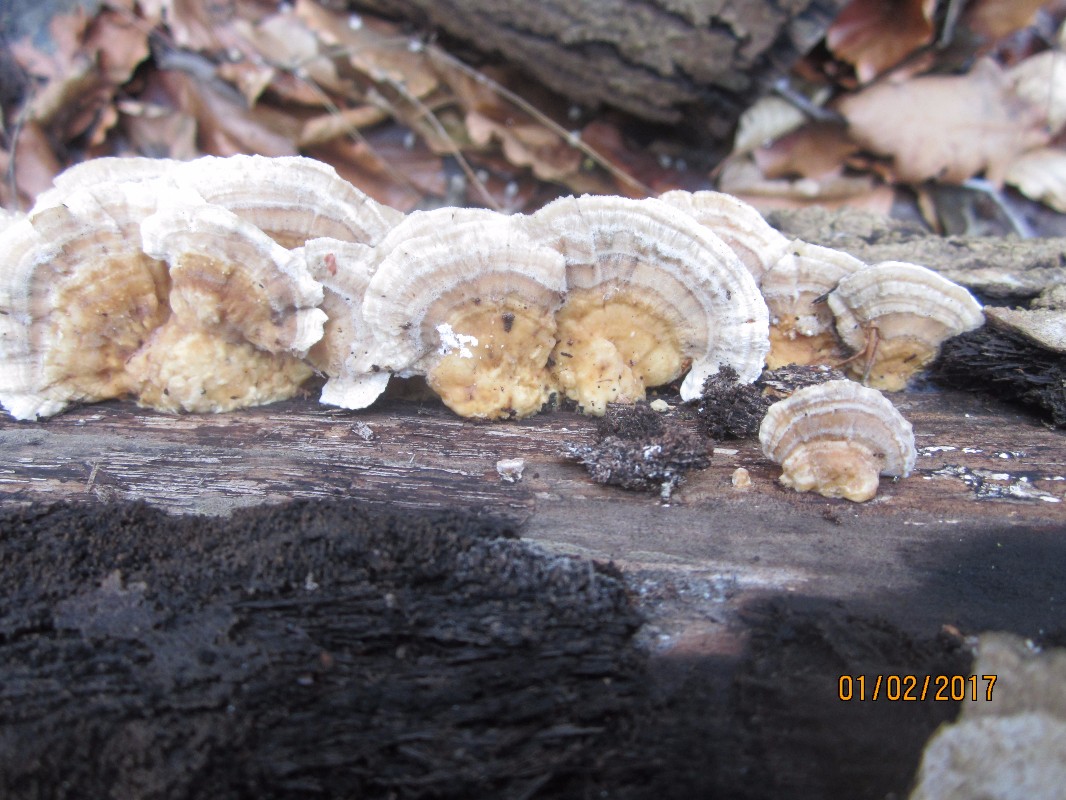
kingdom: Fungi
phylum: Basidiomycota
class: Agaricomycetes
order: Polyporales
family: Polyporaceae
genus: Trametes
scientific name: Trametes ochracea
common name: bæltet læderporesvamp
